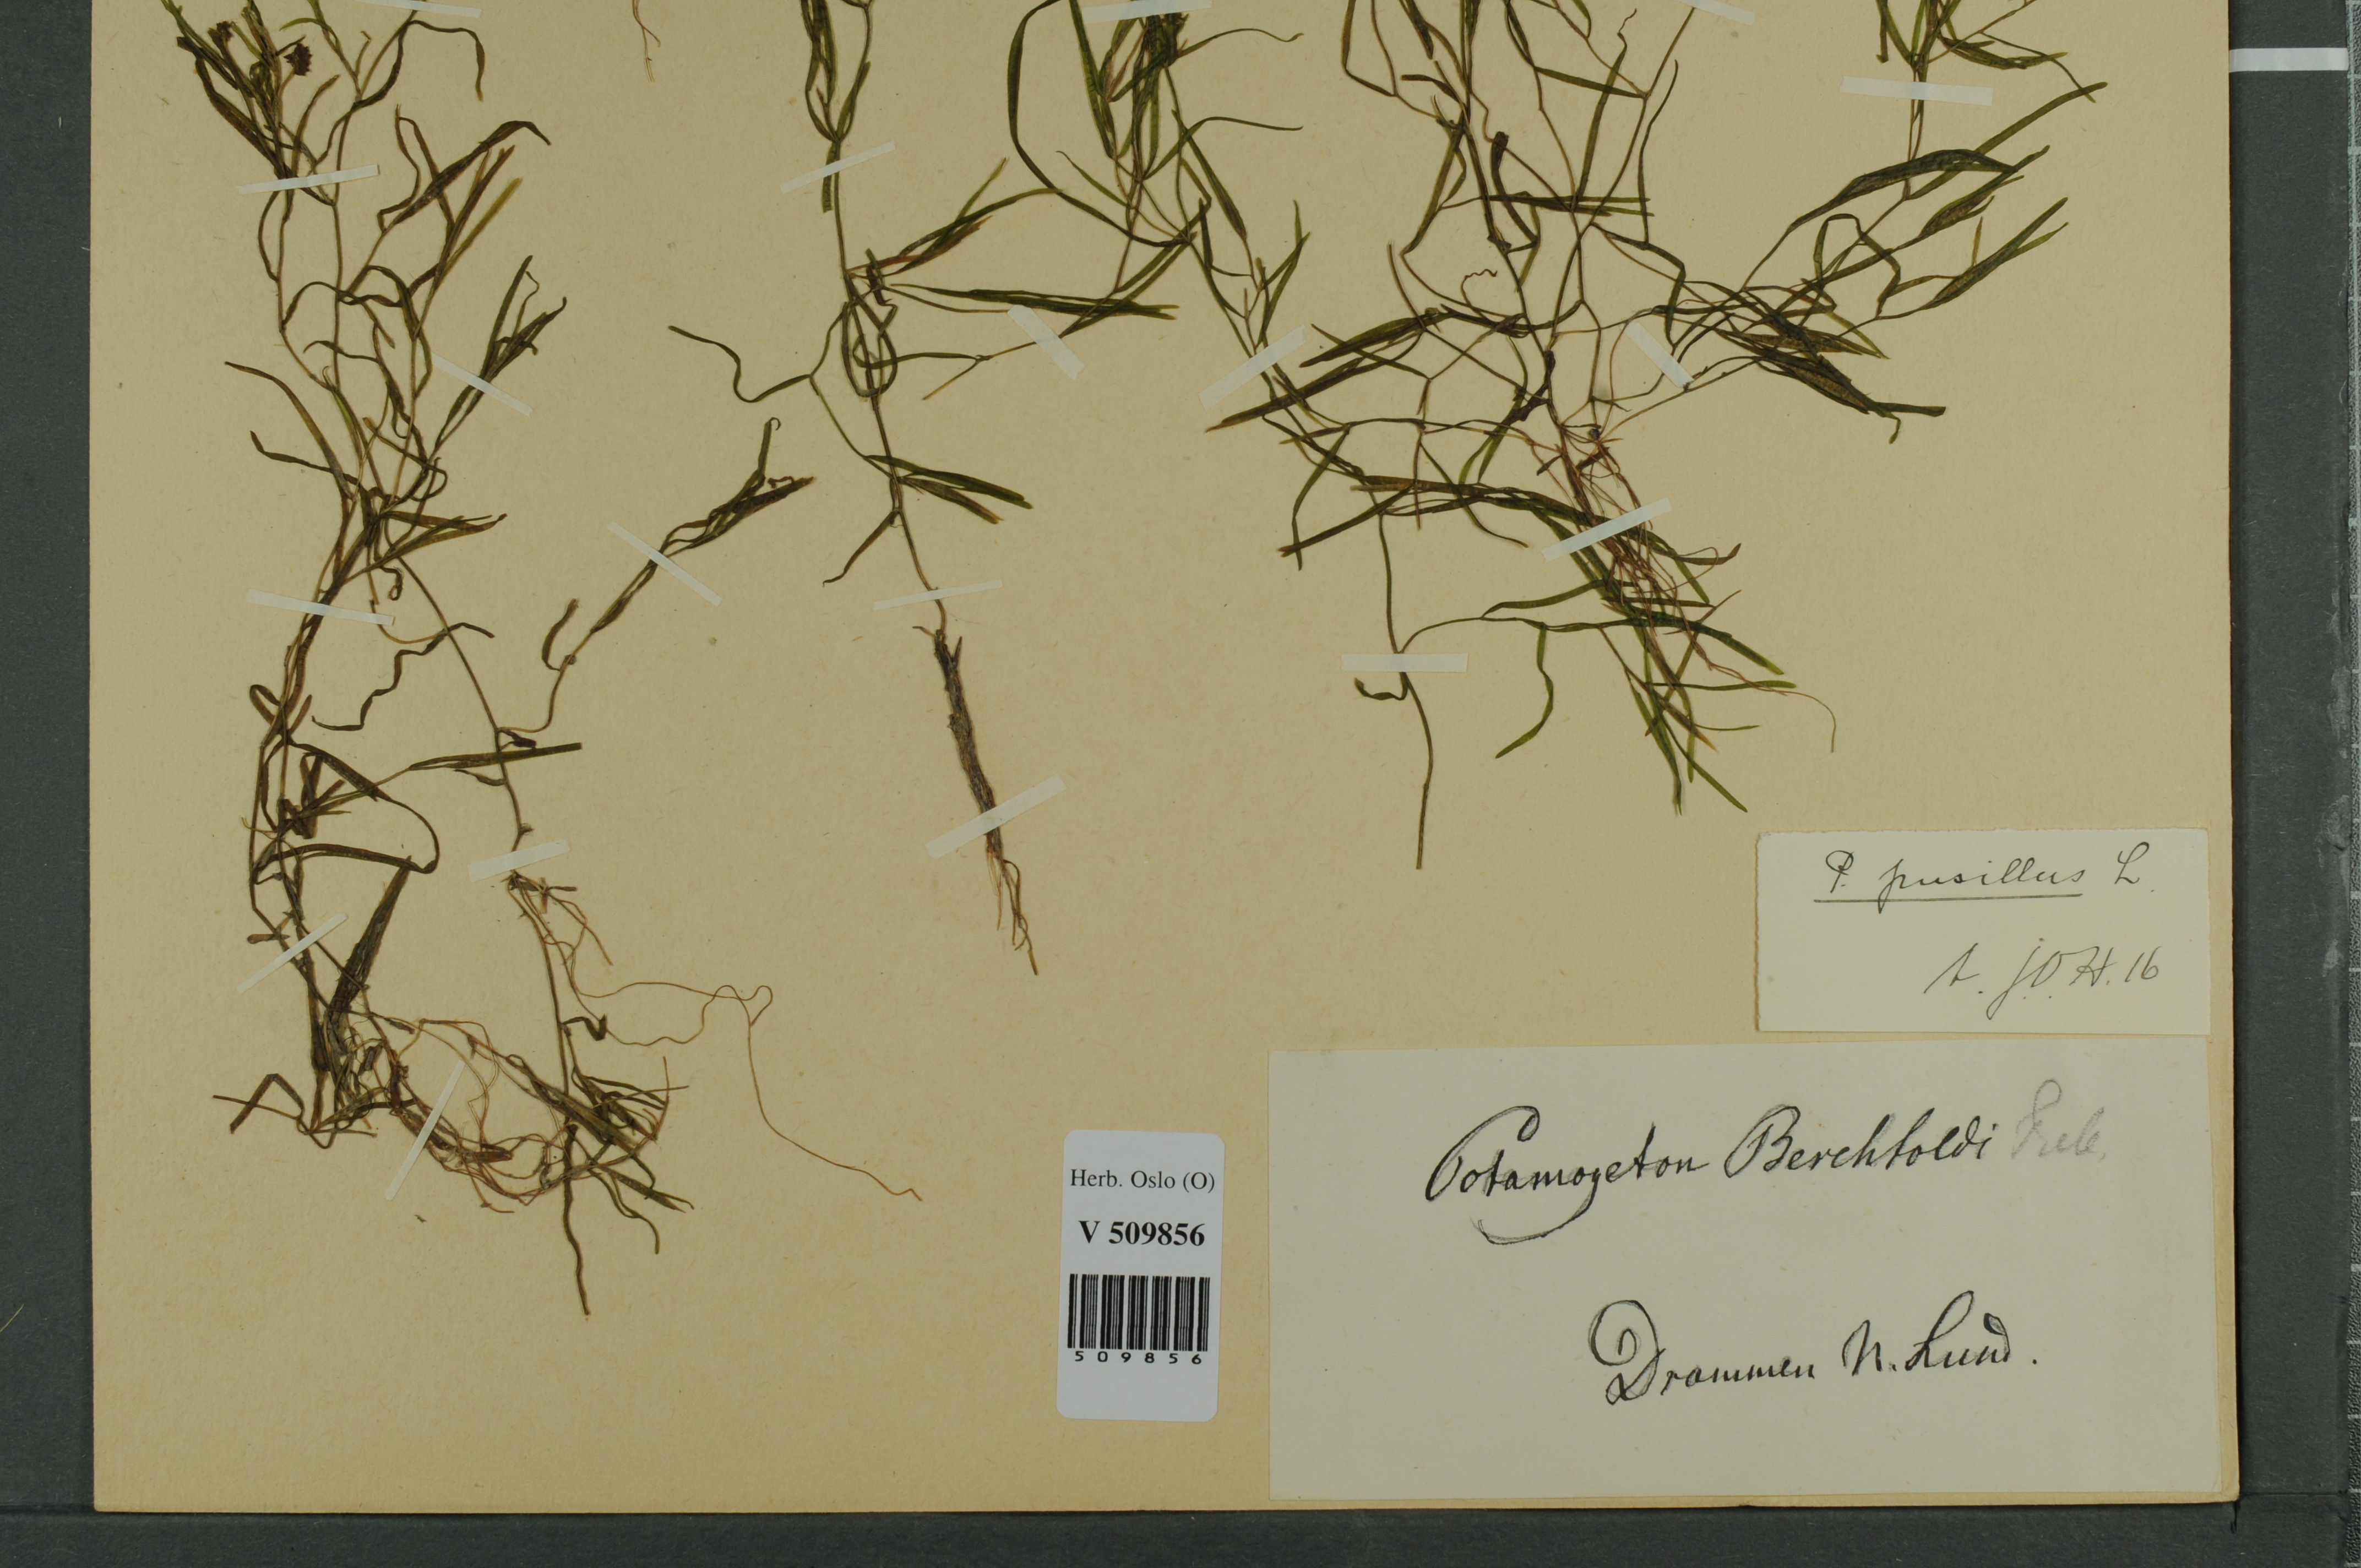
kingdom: Plantae
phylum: Tracheophyta
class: Liliopsida
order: Alismatales
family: Potamogetonaceae
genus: Potamogeton
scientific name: Potamogeton berchtoldii
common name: Small pondweed
